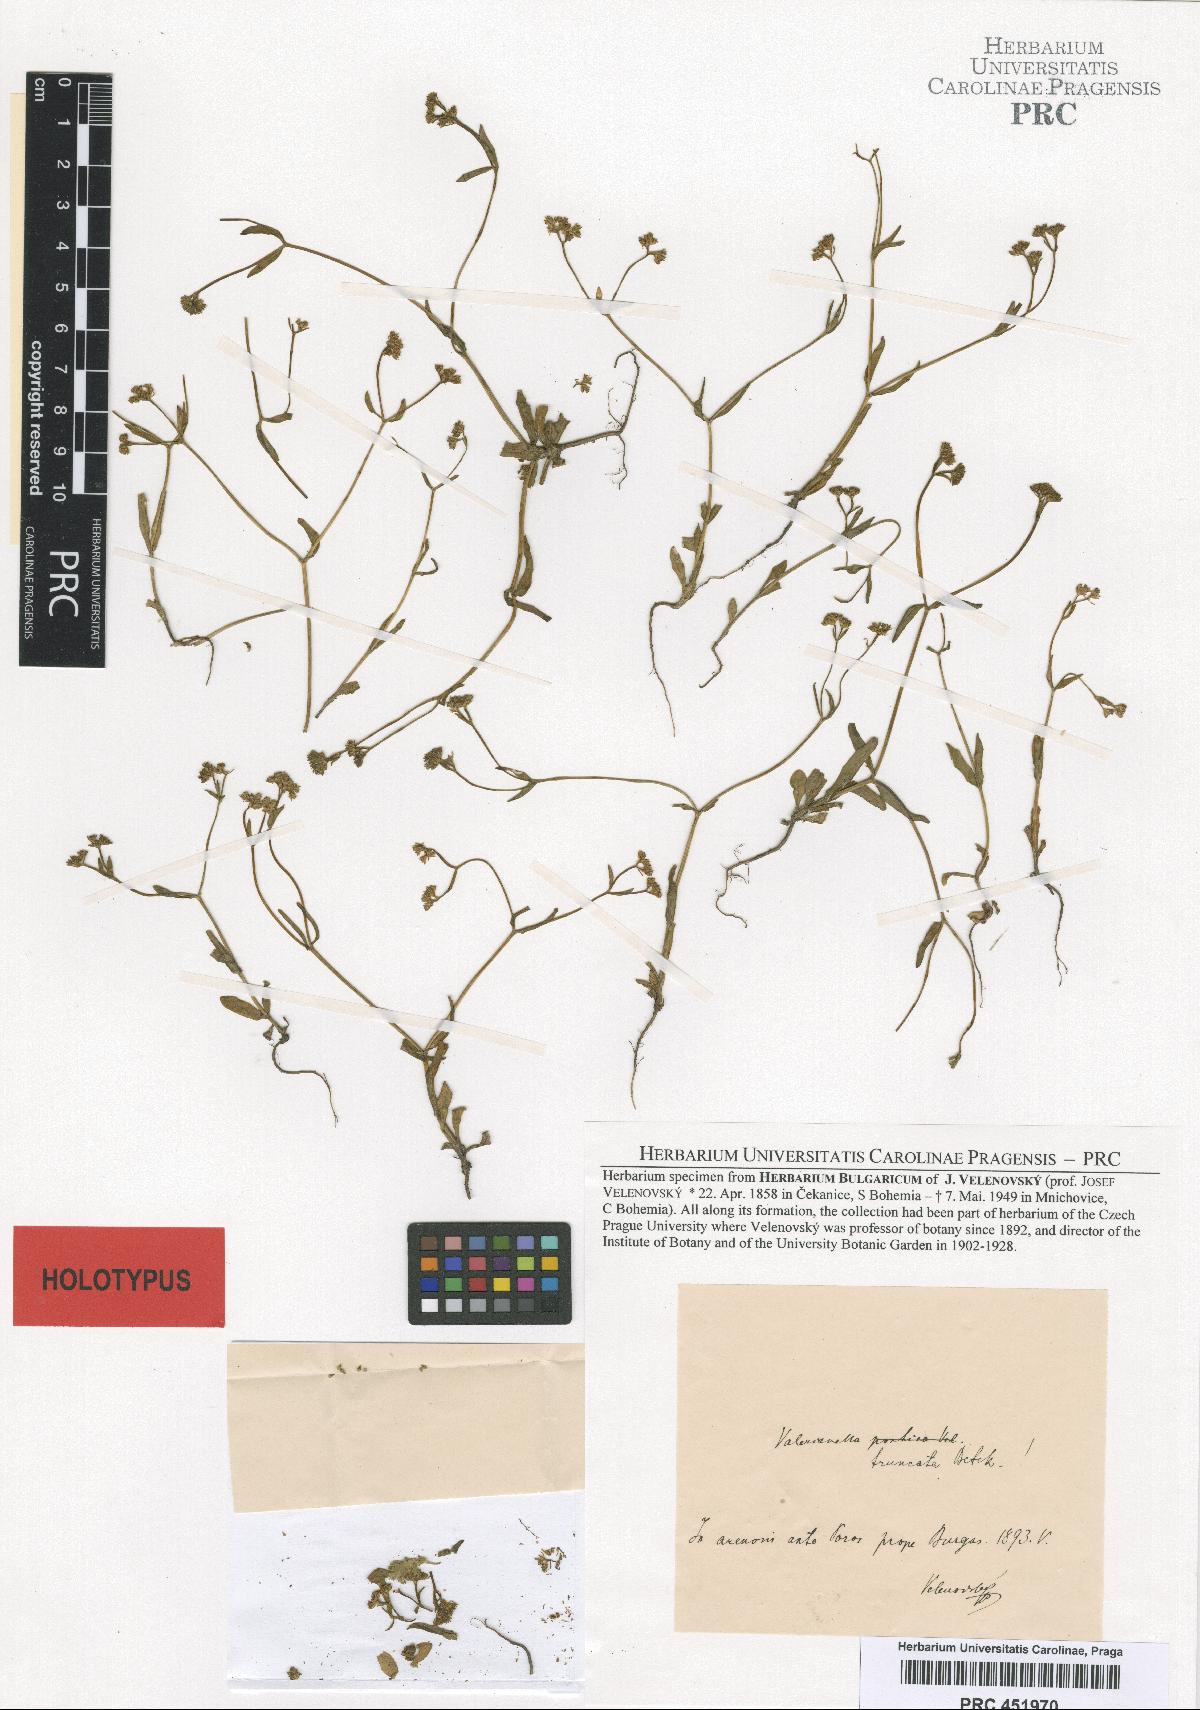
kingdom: Plantae
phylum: Tracheophyta
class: Magnoliopsida
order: Dipsacales
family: Caprifoliaceae
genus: Valerianella
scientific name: Valerianella pontica
